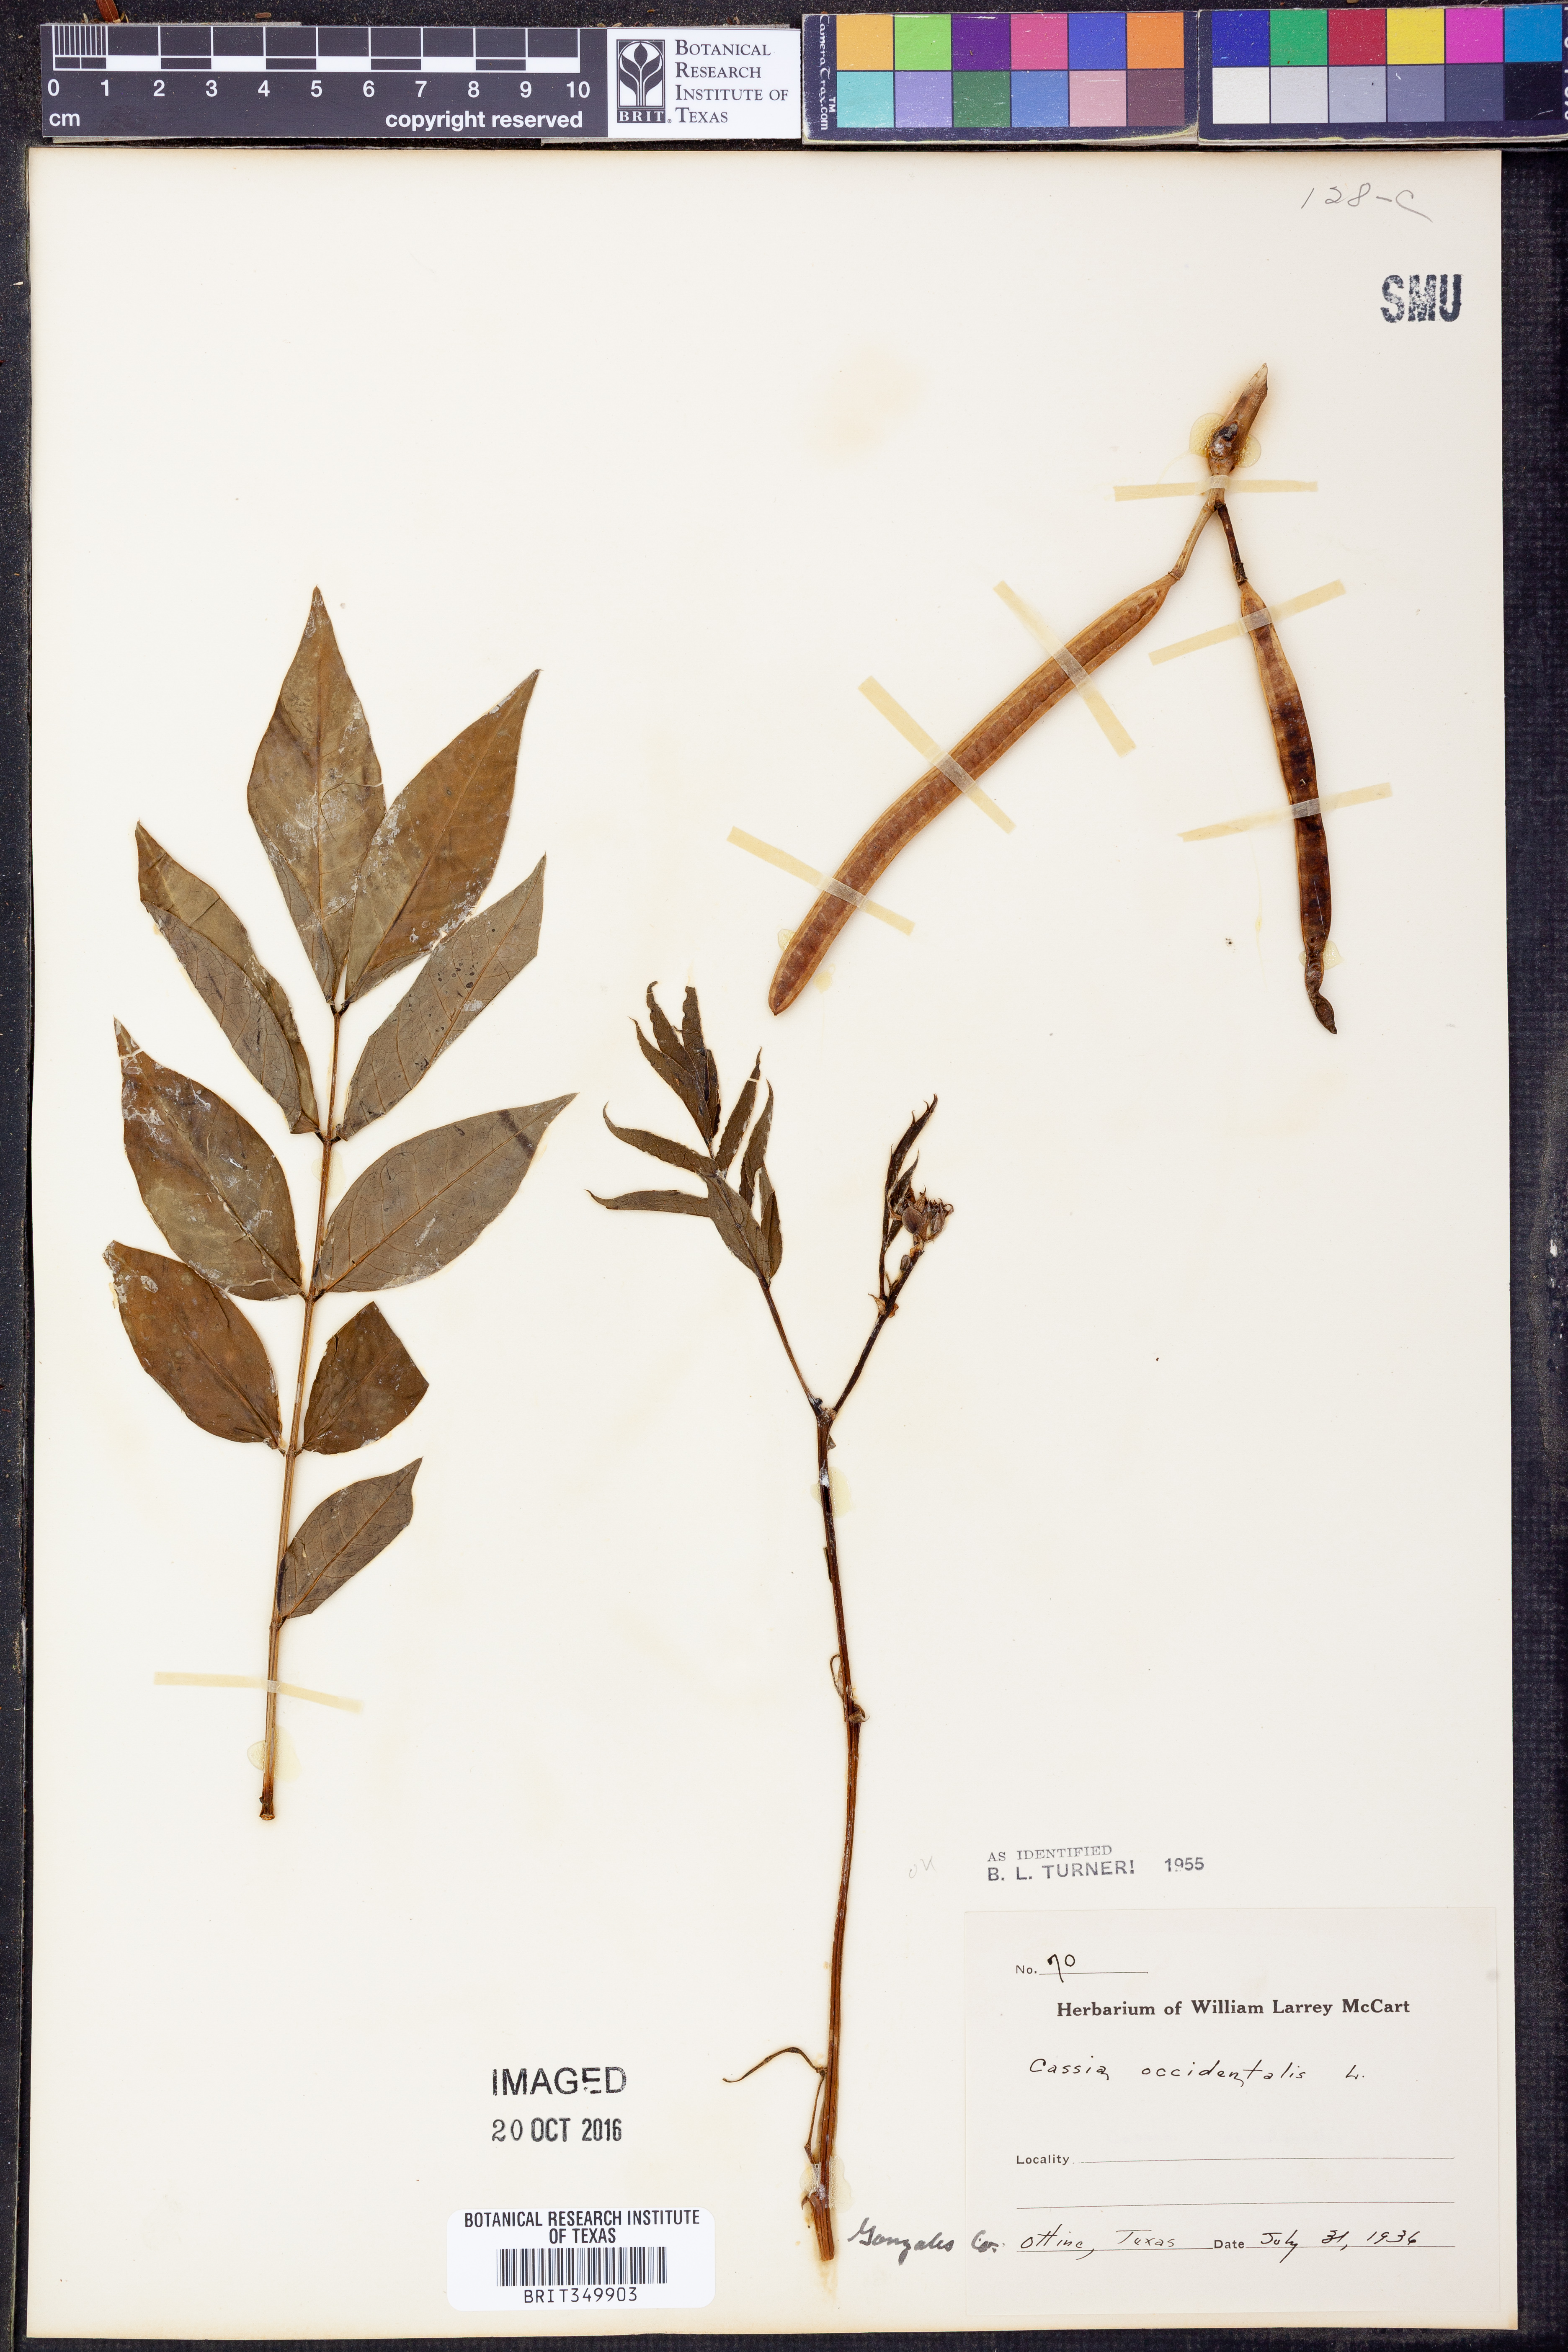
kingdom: Plantae
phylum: Tracheophyta
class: Magnoliopsida
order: Fabales
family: Fabaceae
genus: Senna
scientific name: Senna occidentalis
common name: Septicweed
